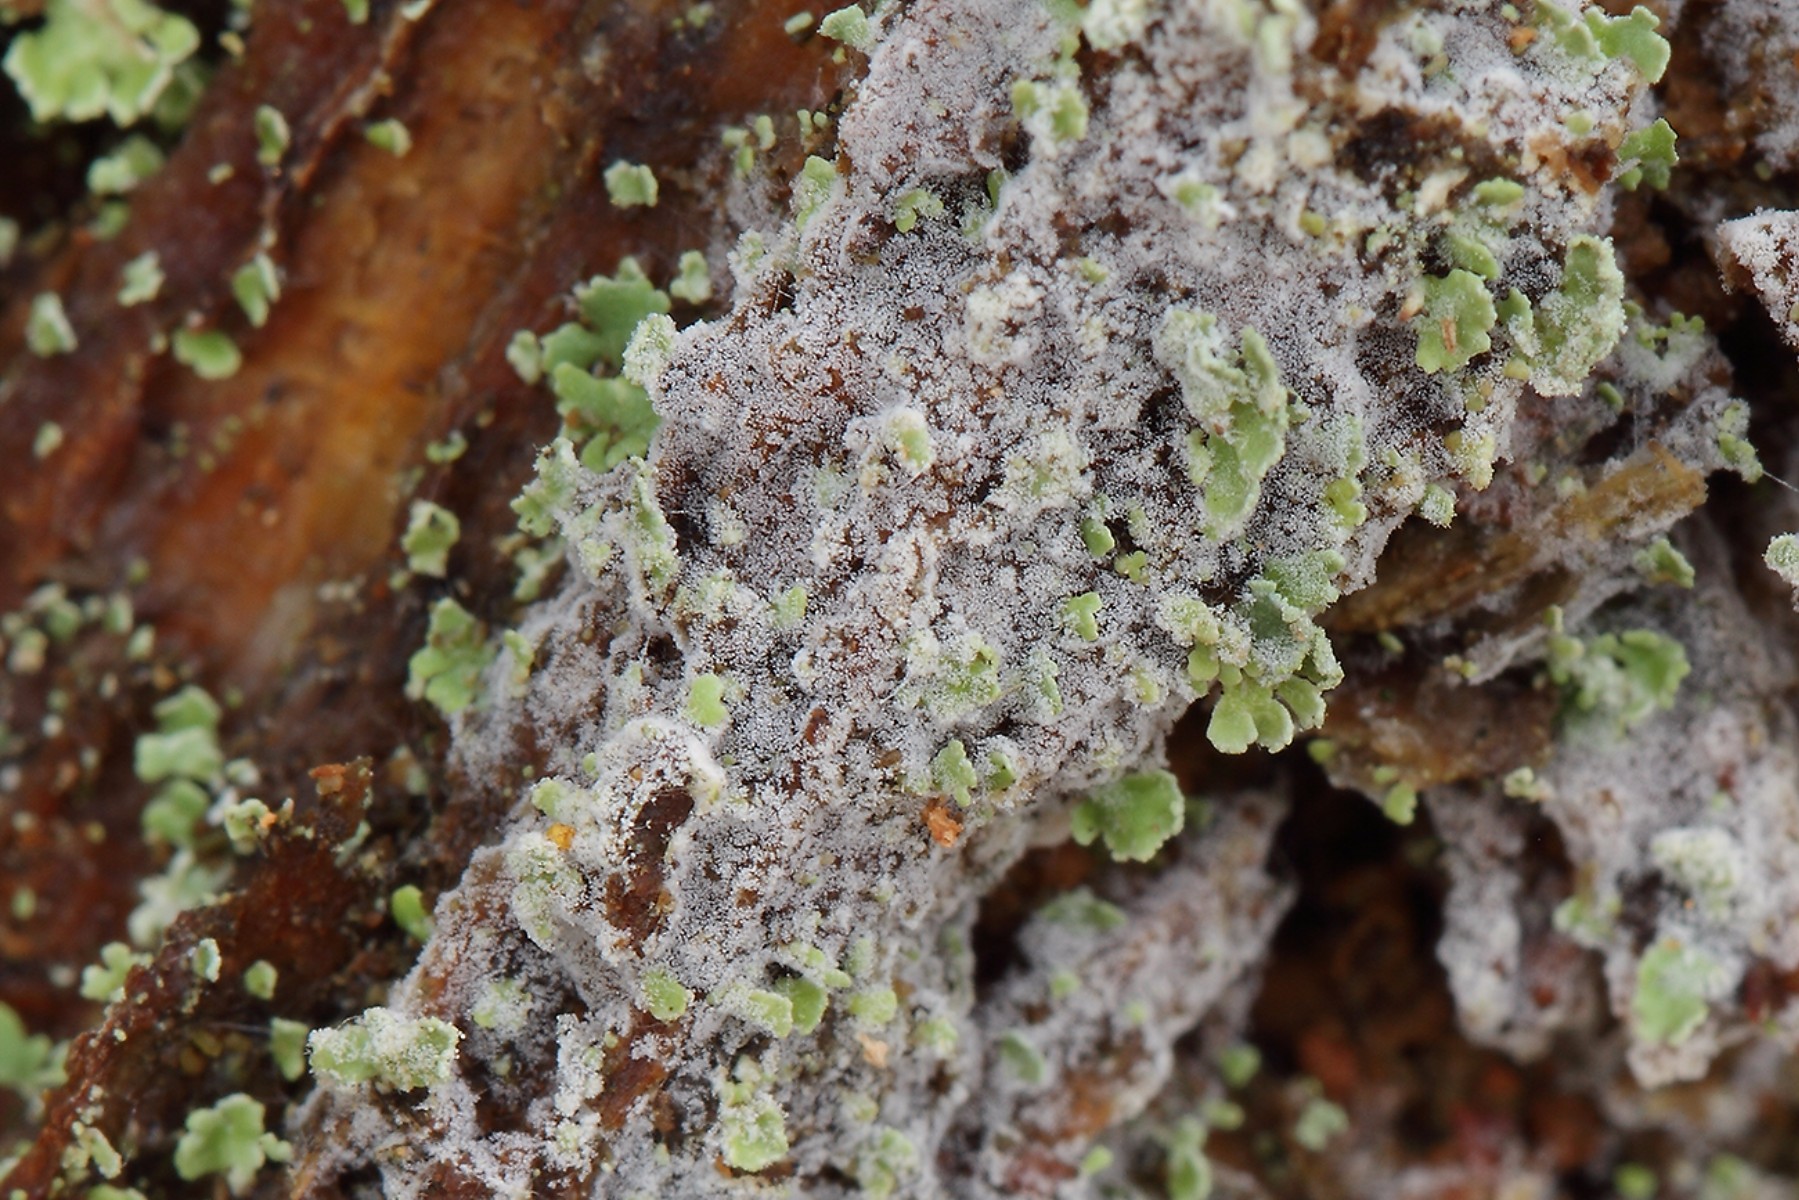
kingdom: Fungi
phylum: Basidiomycota
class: Agaricomycetes
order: Cantharellales
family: Botryobasidiaceae
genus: Botryobasidium
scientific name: Botryobasidium capitatum
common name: kalkhvid spindhinde
